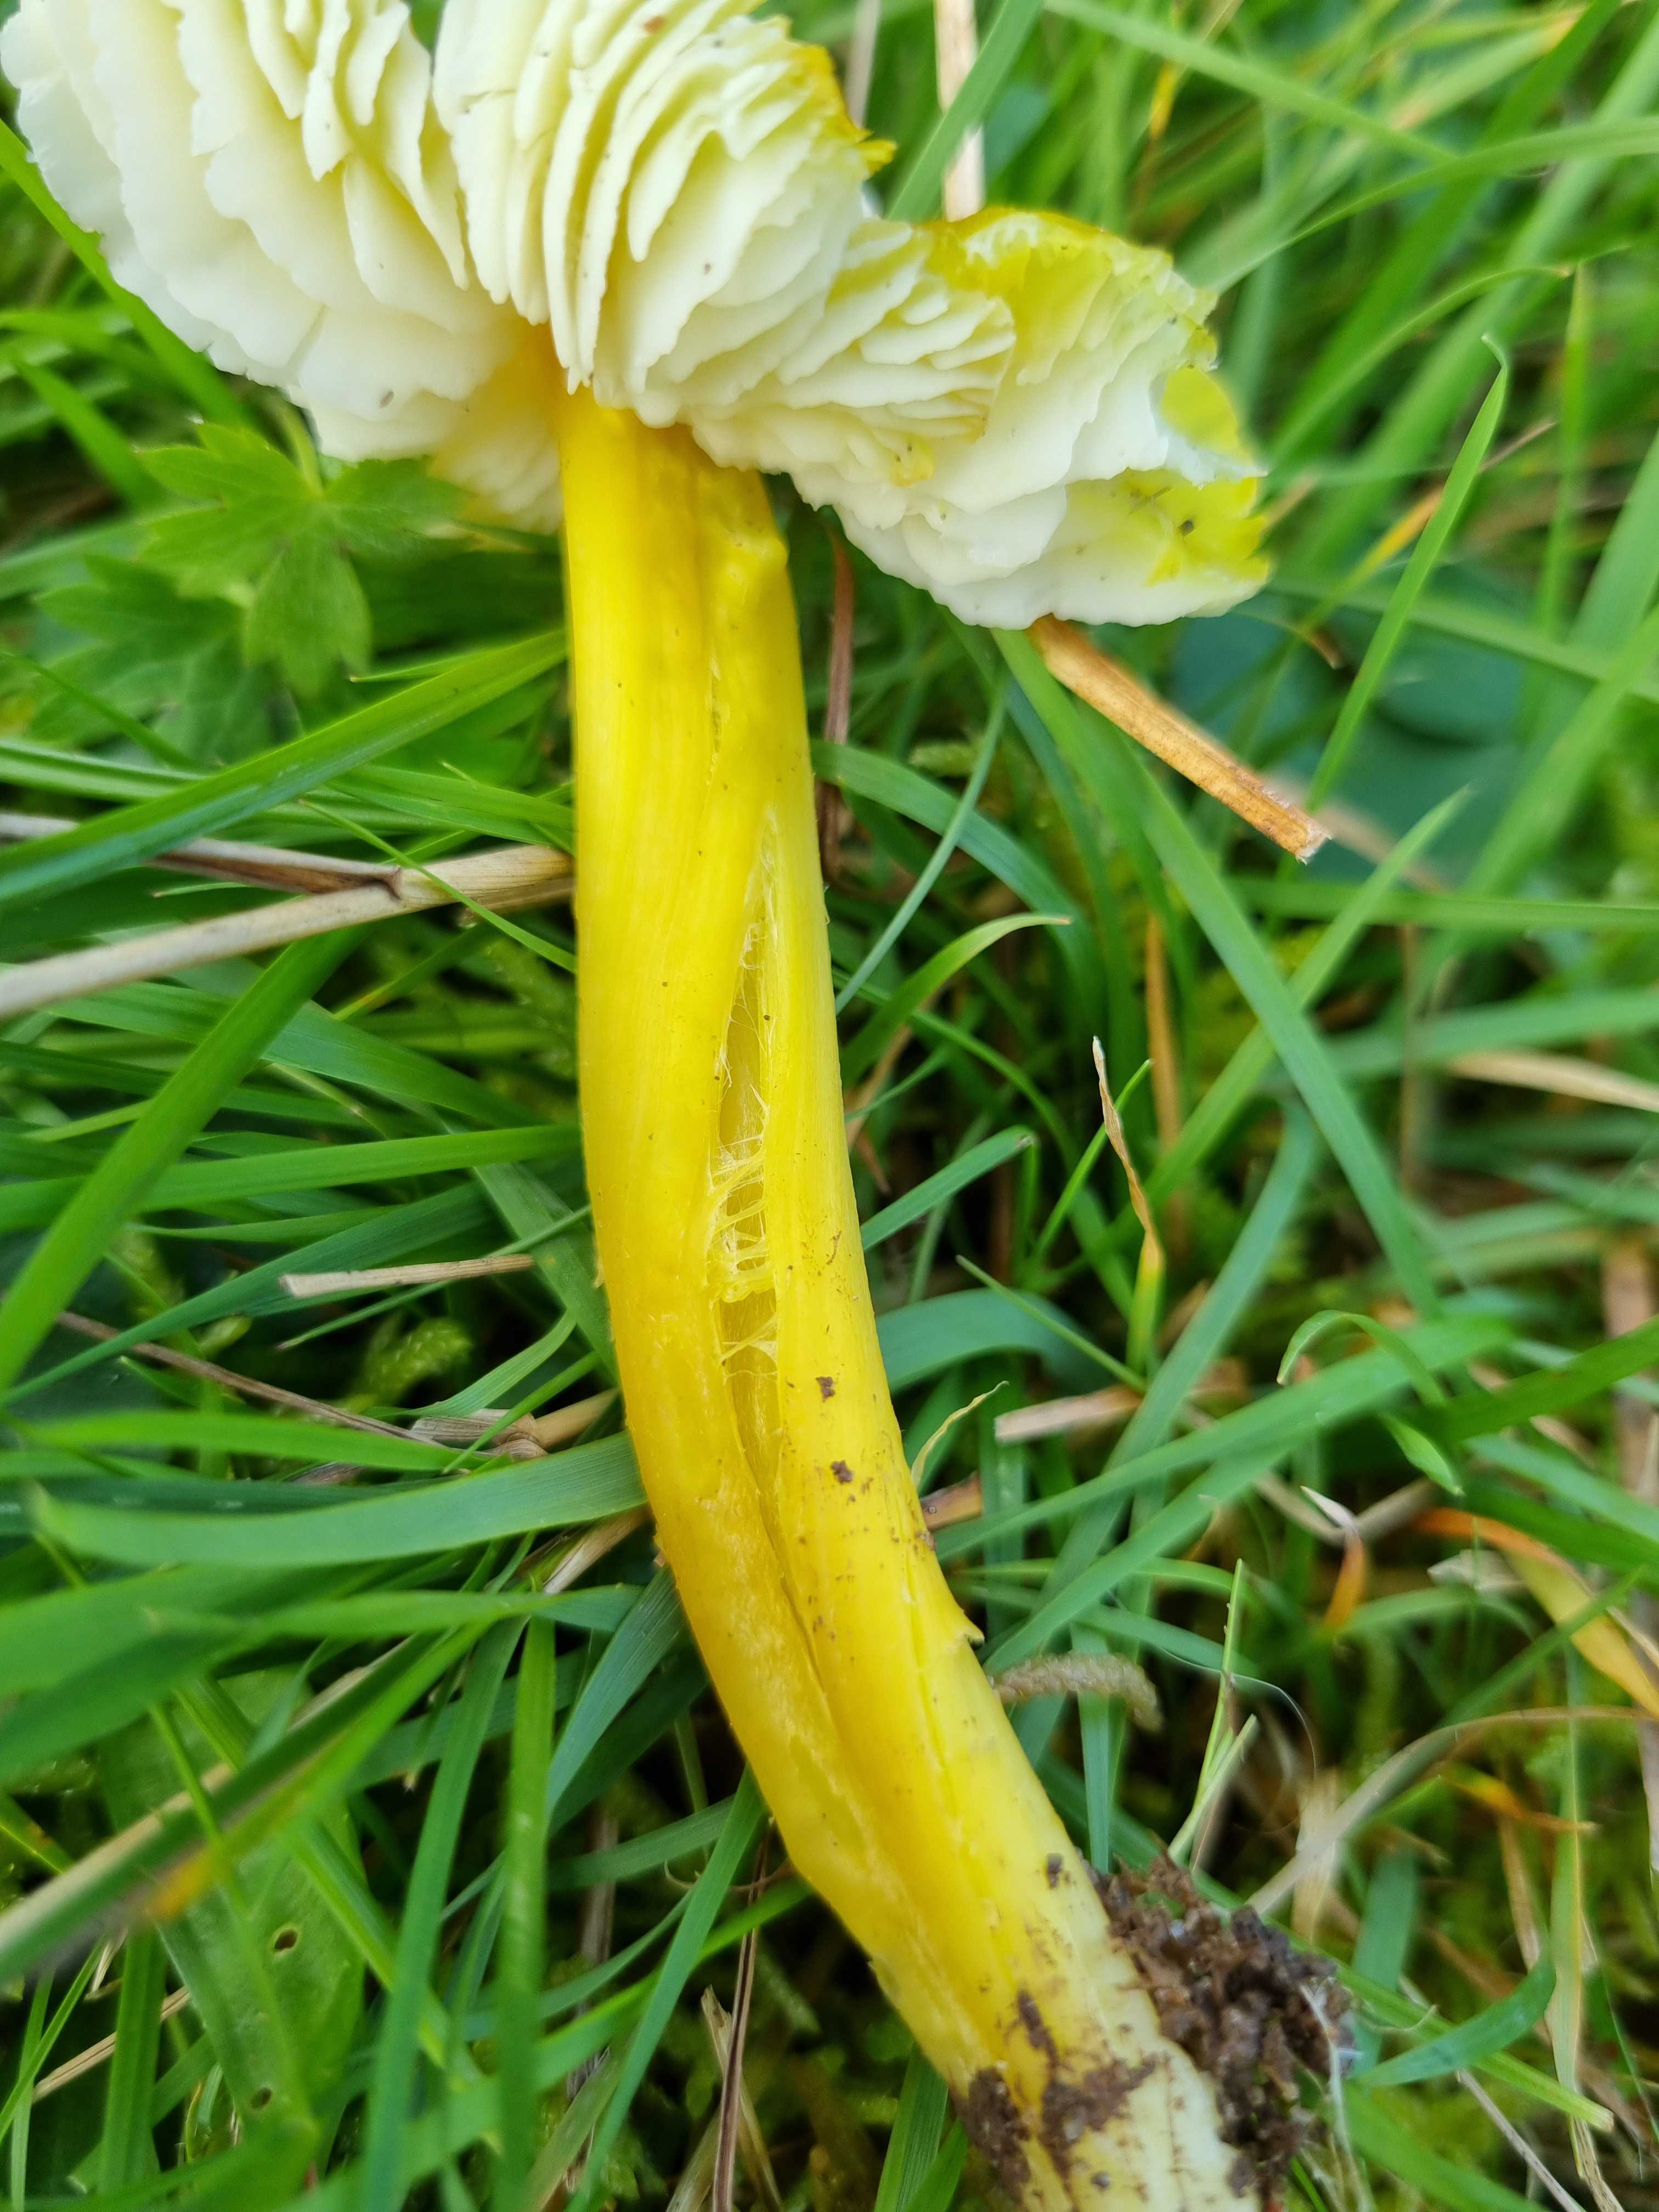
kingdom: Fungi
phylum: Basidiomycota
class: Agaricomycetes
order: Agaricales
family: Hygrophoraceae
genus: Hygrocybe
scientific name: Hygrocybe citrinovirens
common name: grøngul vokshat
